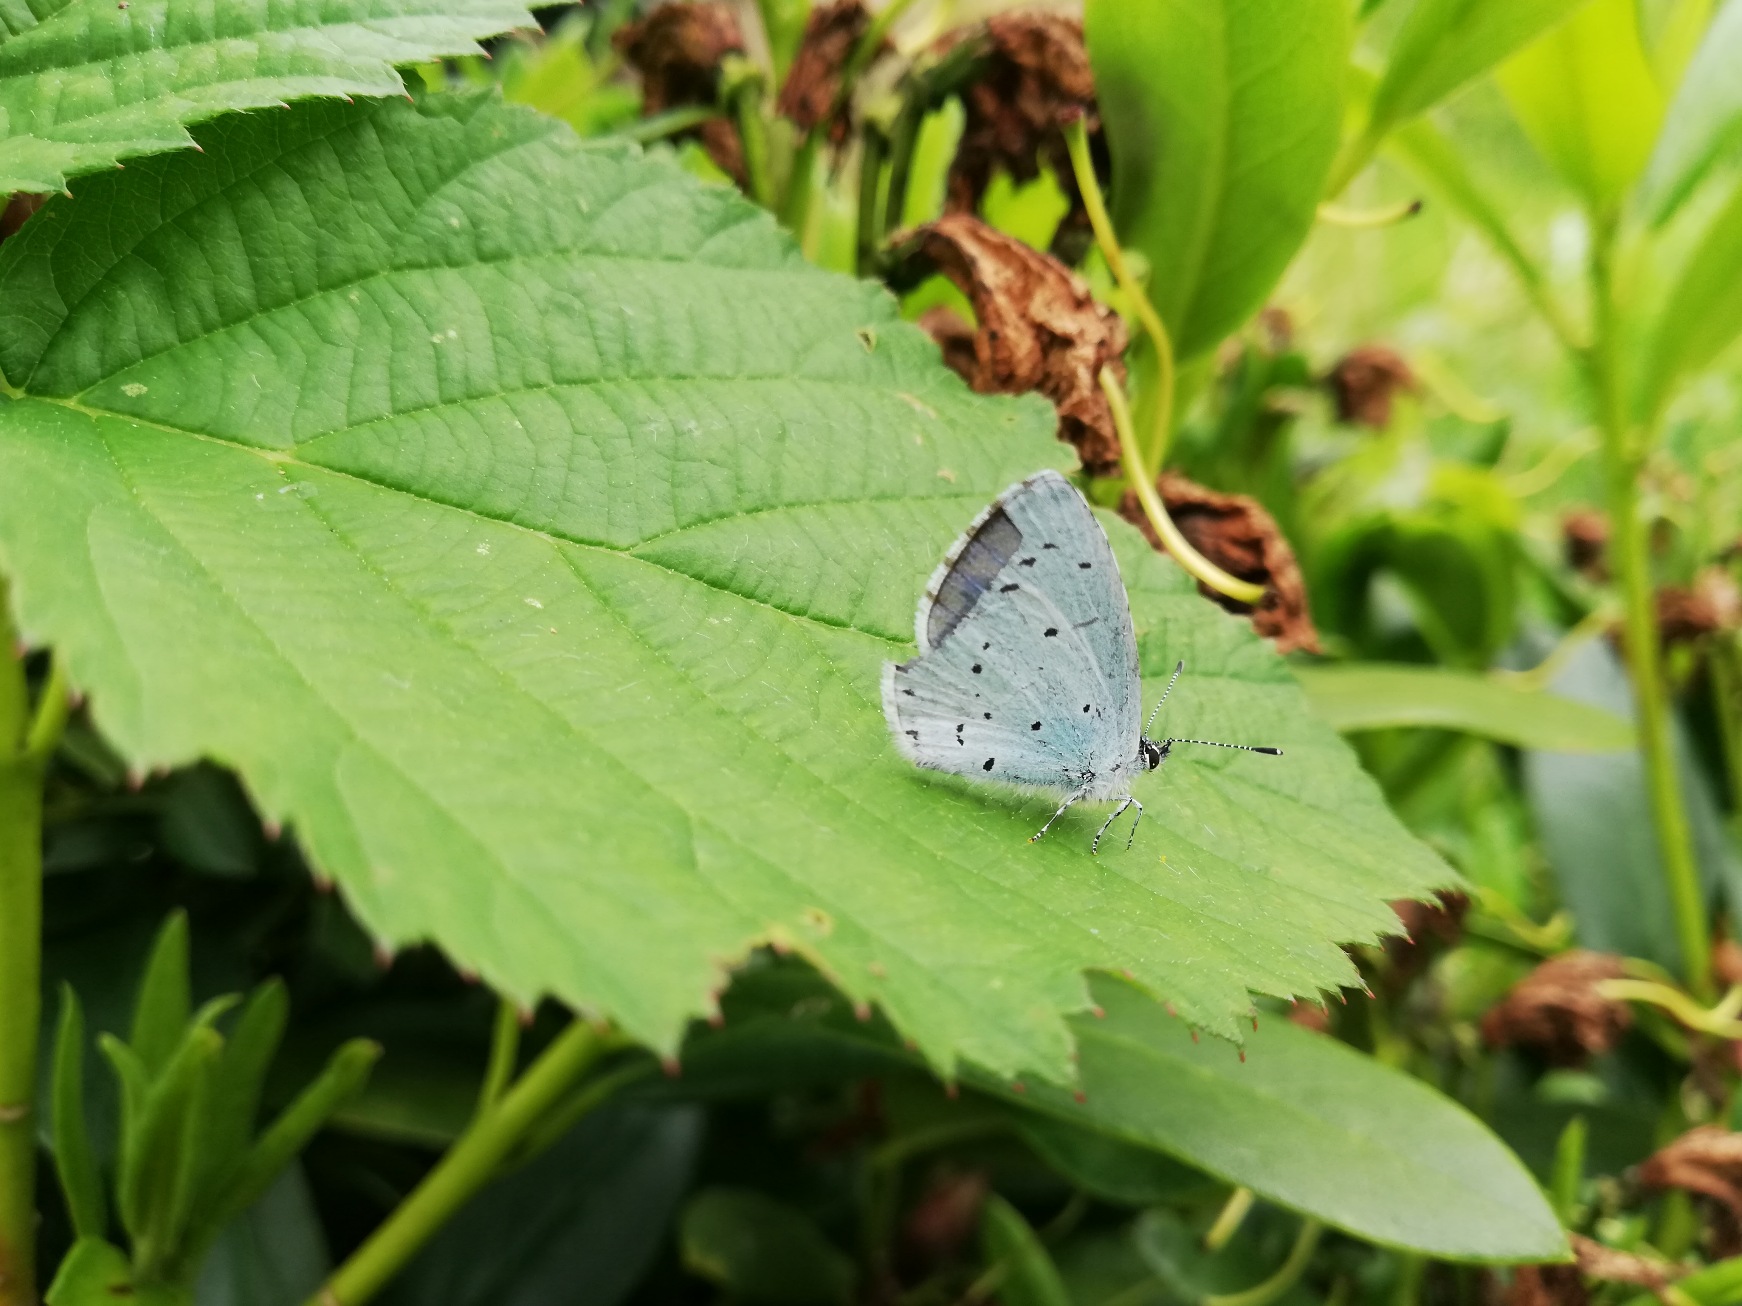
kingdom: Animalia
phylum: Arthropoda
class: Insecta
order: Lepidoptera
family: Lycaenidae
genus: Celastrina
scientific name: Celastrina argiolus
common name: Skovblåfugl
